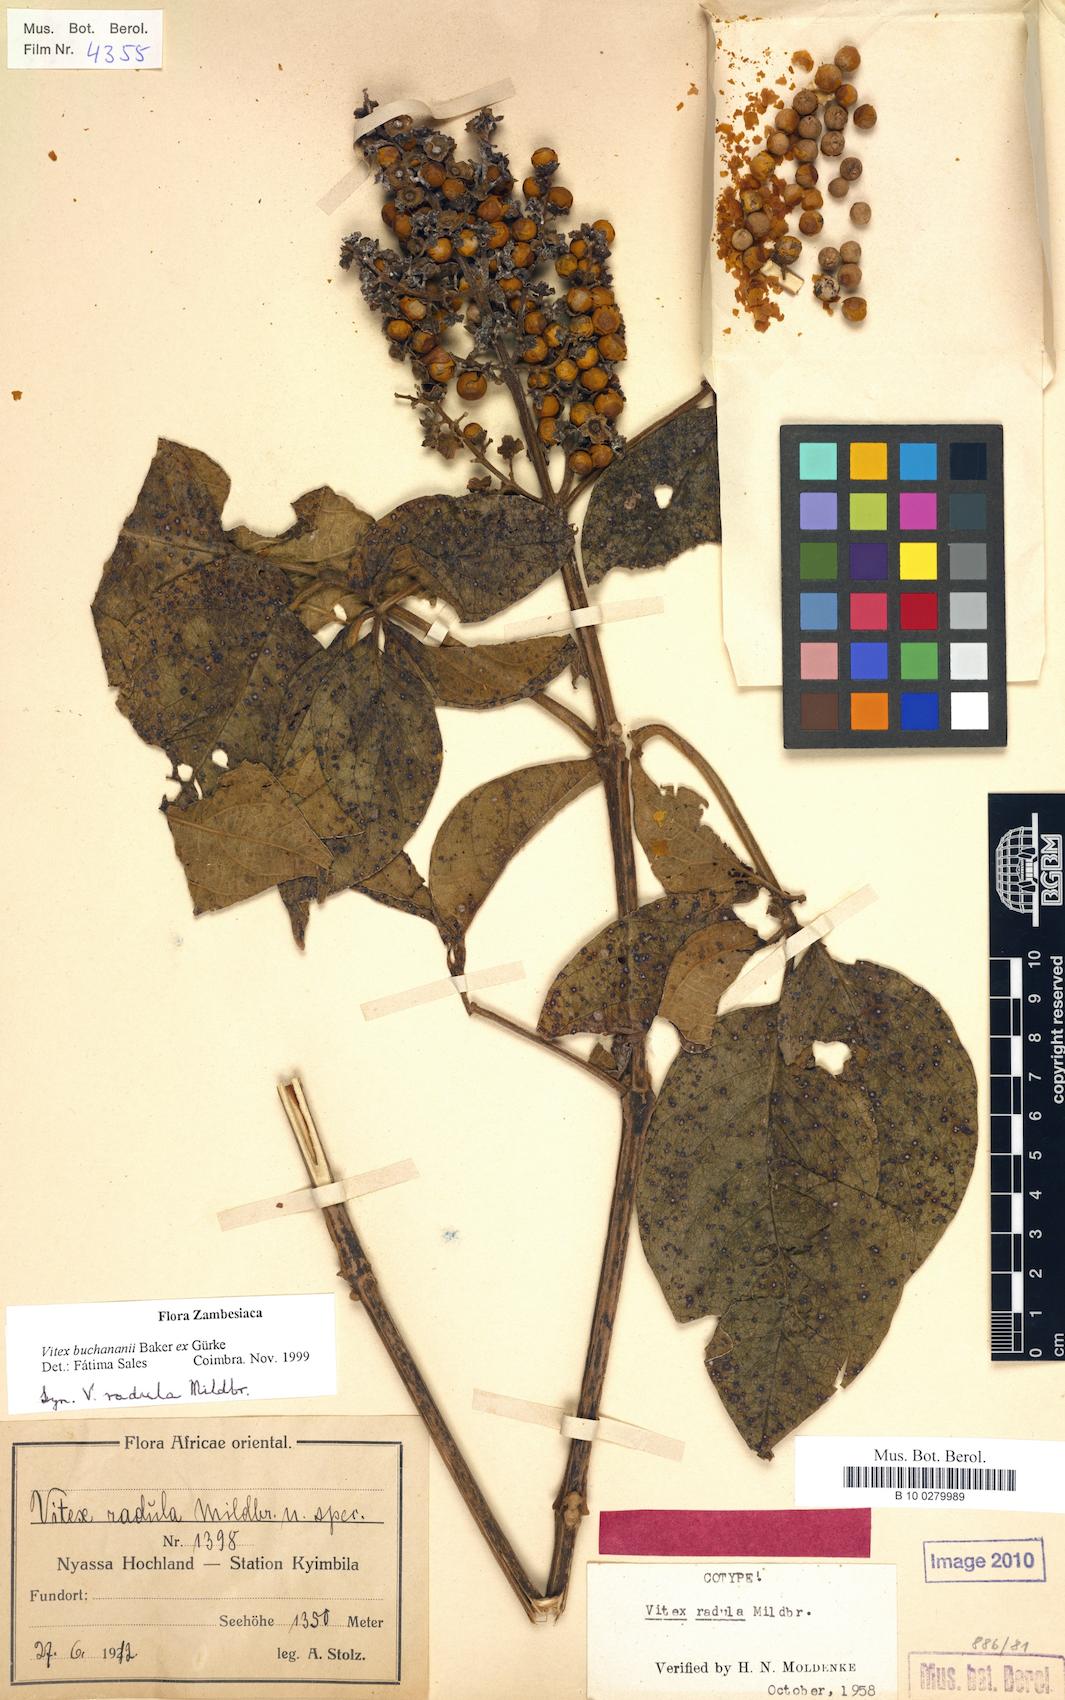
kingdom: Plantae
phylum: Tracheophyta
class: Magnoliopsida
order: Lamiales
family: Lamiaceae
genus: Vitex
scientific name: Vitex buchananii
